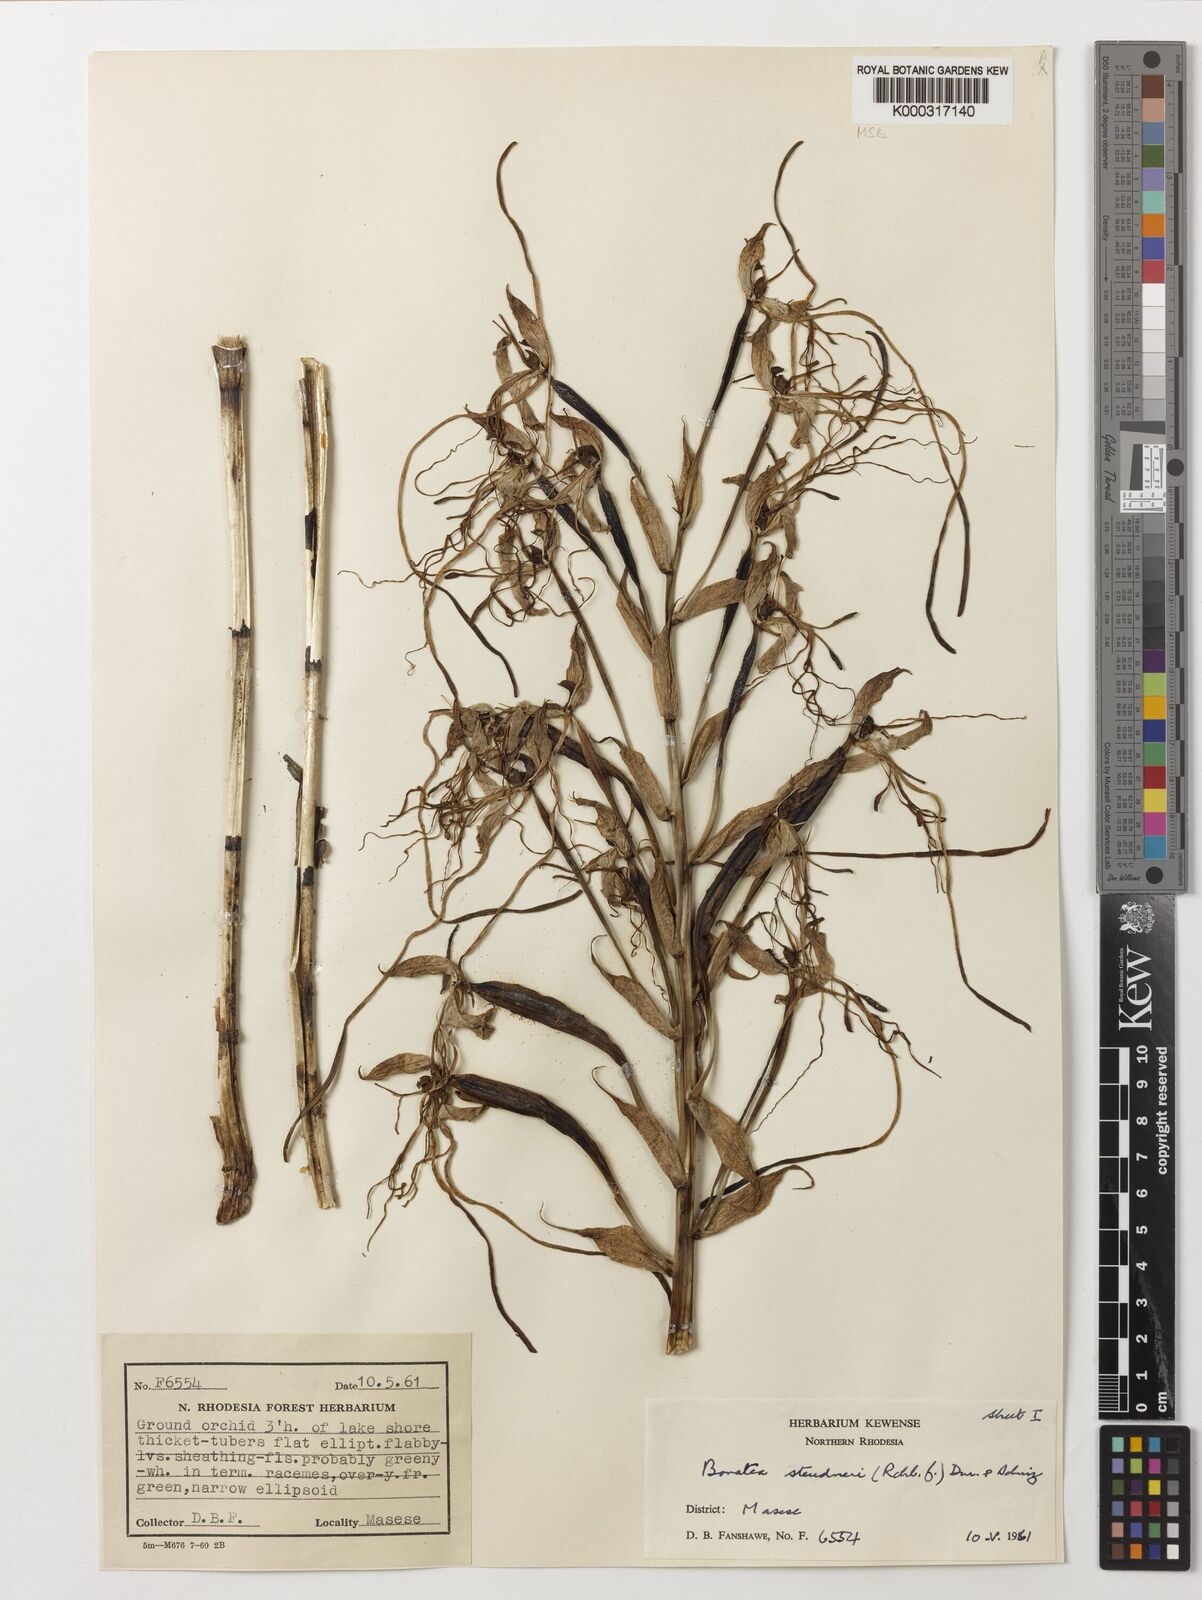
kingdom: Plantae
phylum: Tracheophyta
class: Liliopsida
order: Asparagales
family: Orchidaceae
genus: Bonatea
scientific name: Bonatea steudneri
